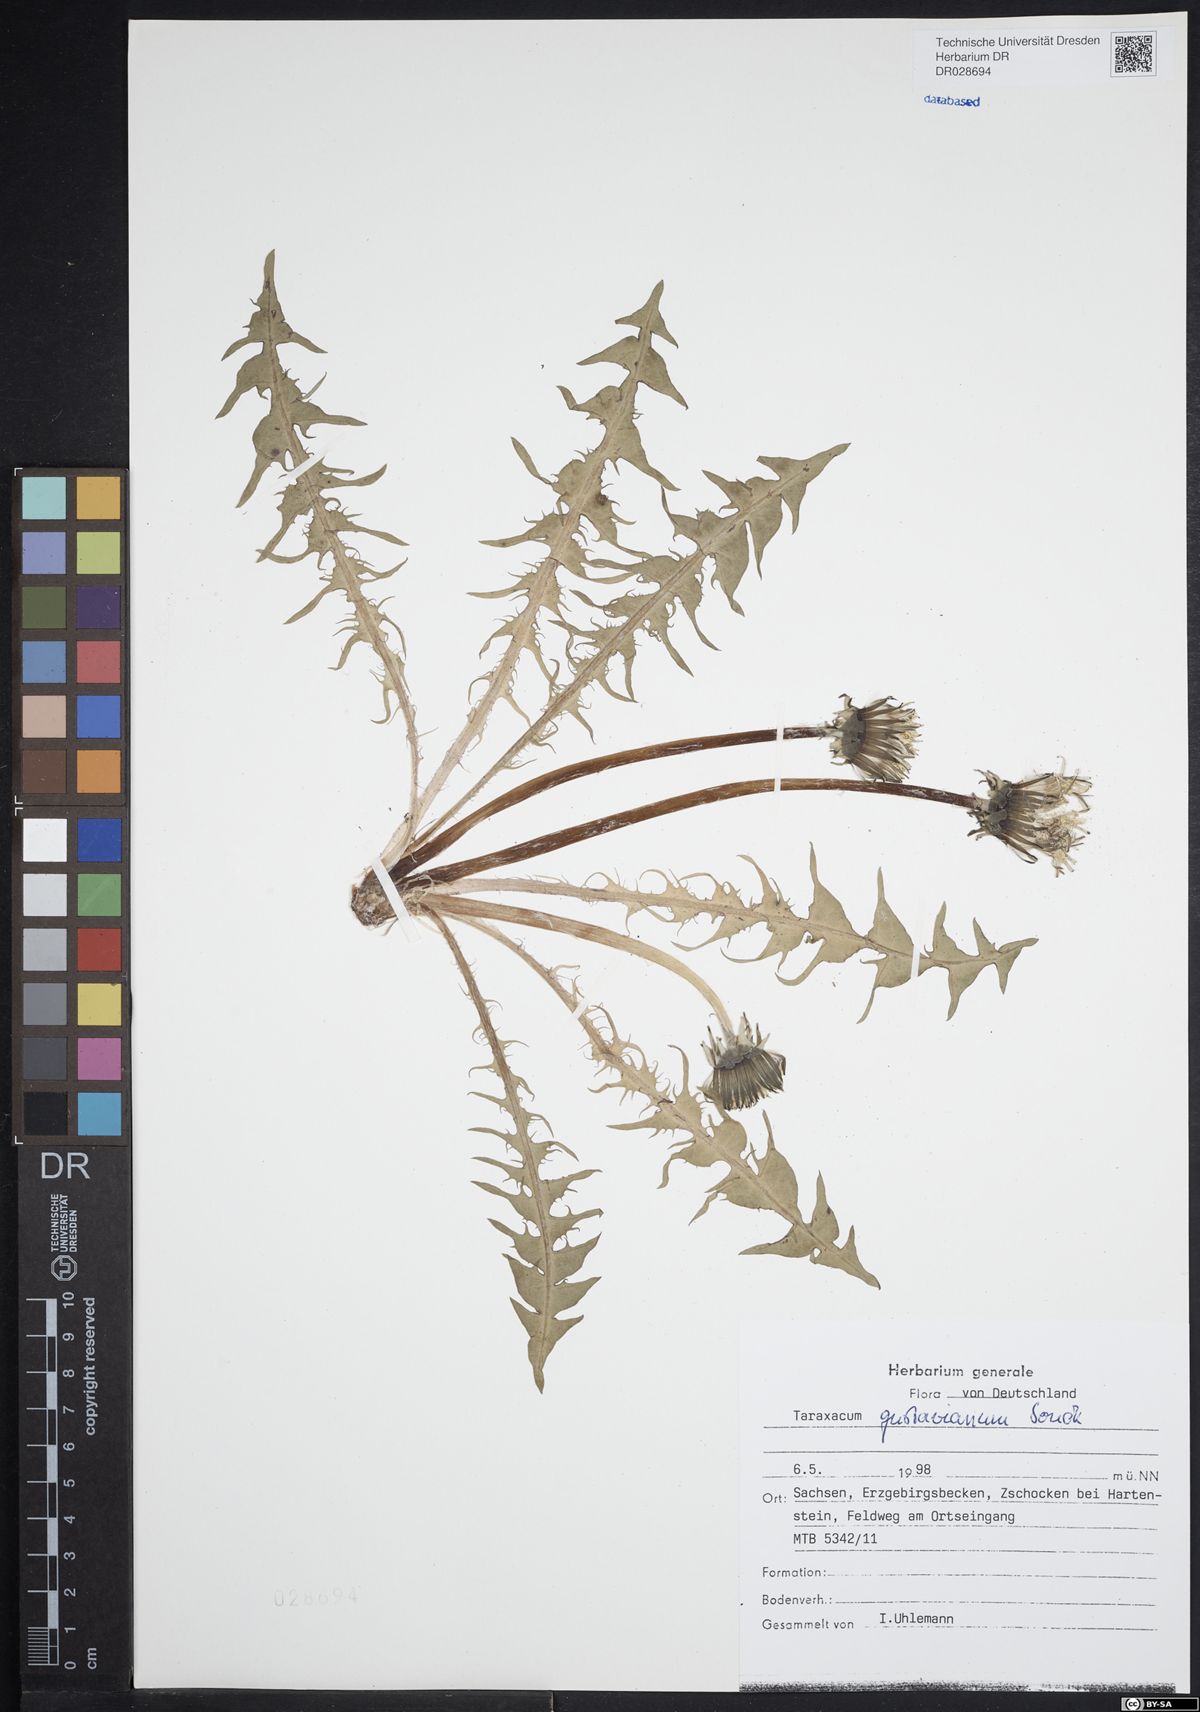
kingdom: Plantae
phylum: Tracheophyta
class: Magnoliopsida
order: Asterales
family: Asteraceae
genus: Taraxacum
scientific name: Taraxacum gustavianum
